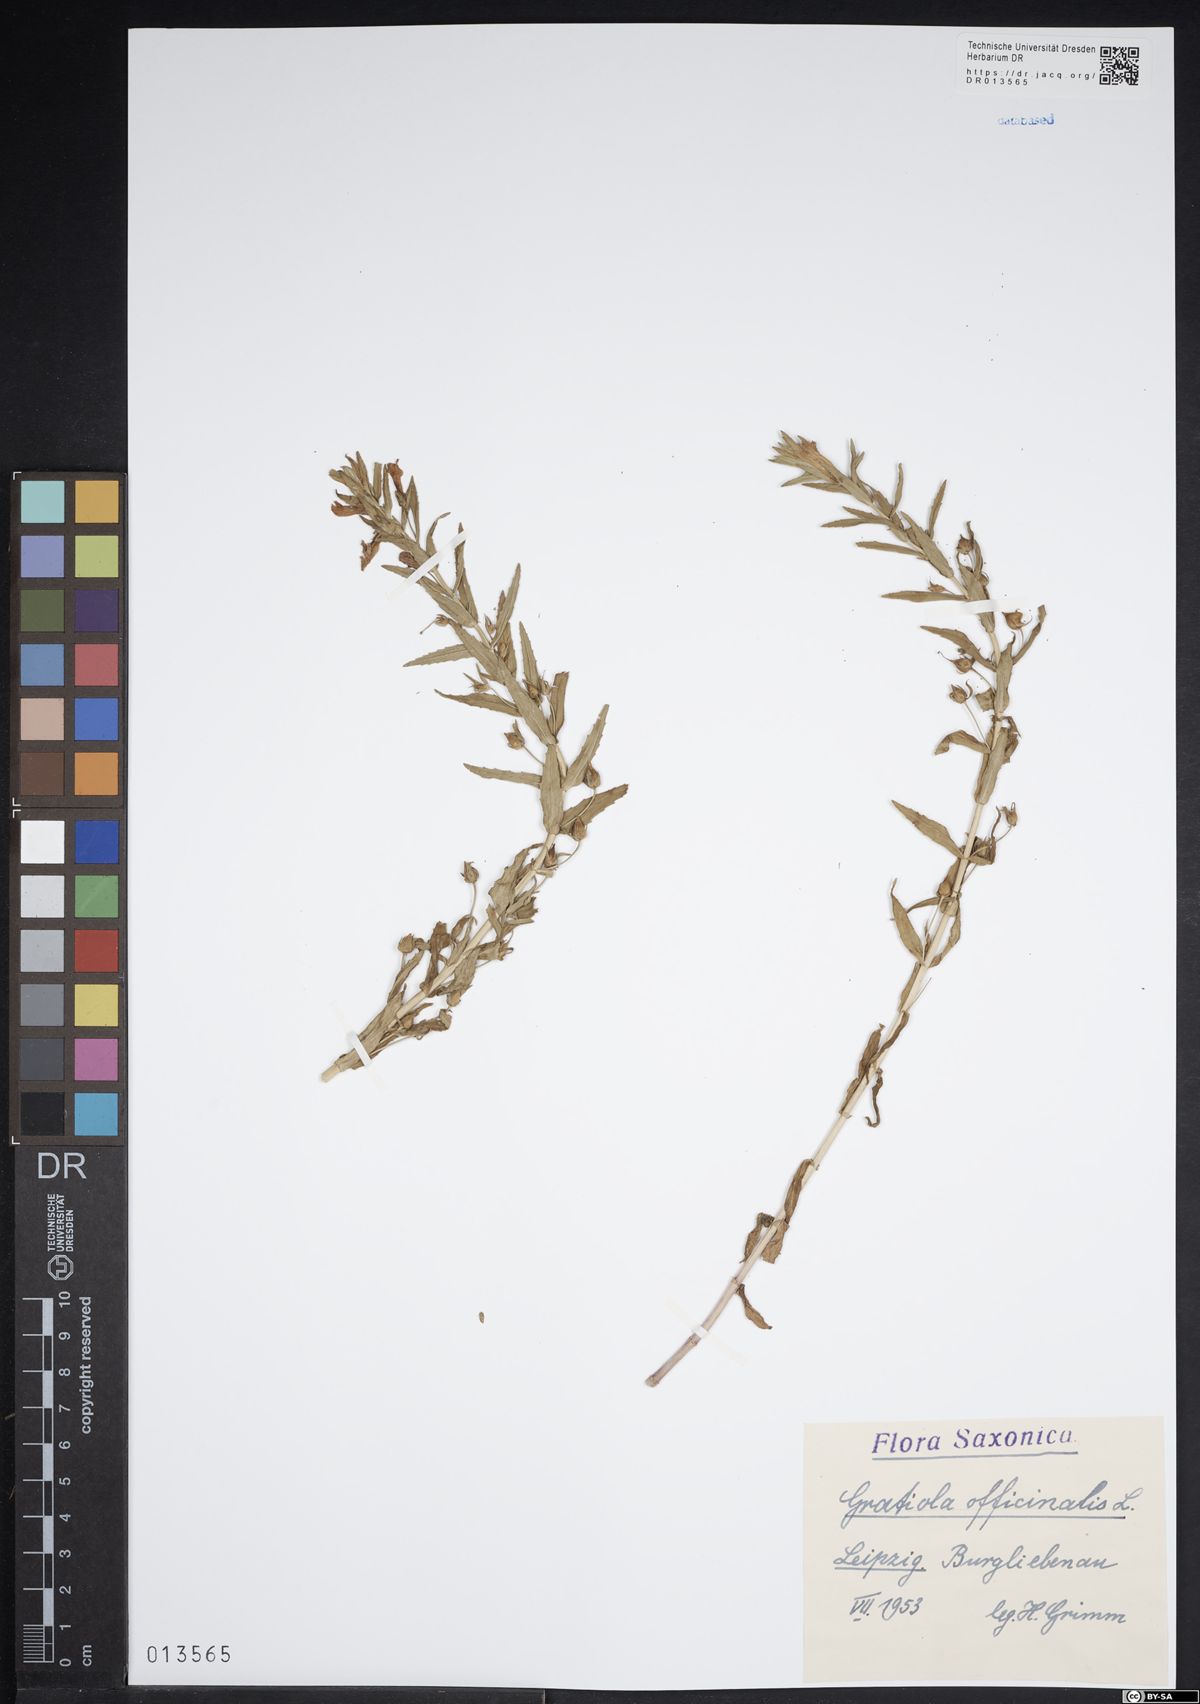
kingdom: Plantae
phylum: Tracheophyta
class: Magnoliopsida
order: Lamiales
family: Plantaginaceae
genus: Gratiola
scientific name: Gratiola officinalis
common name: Gratiola
